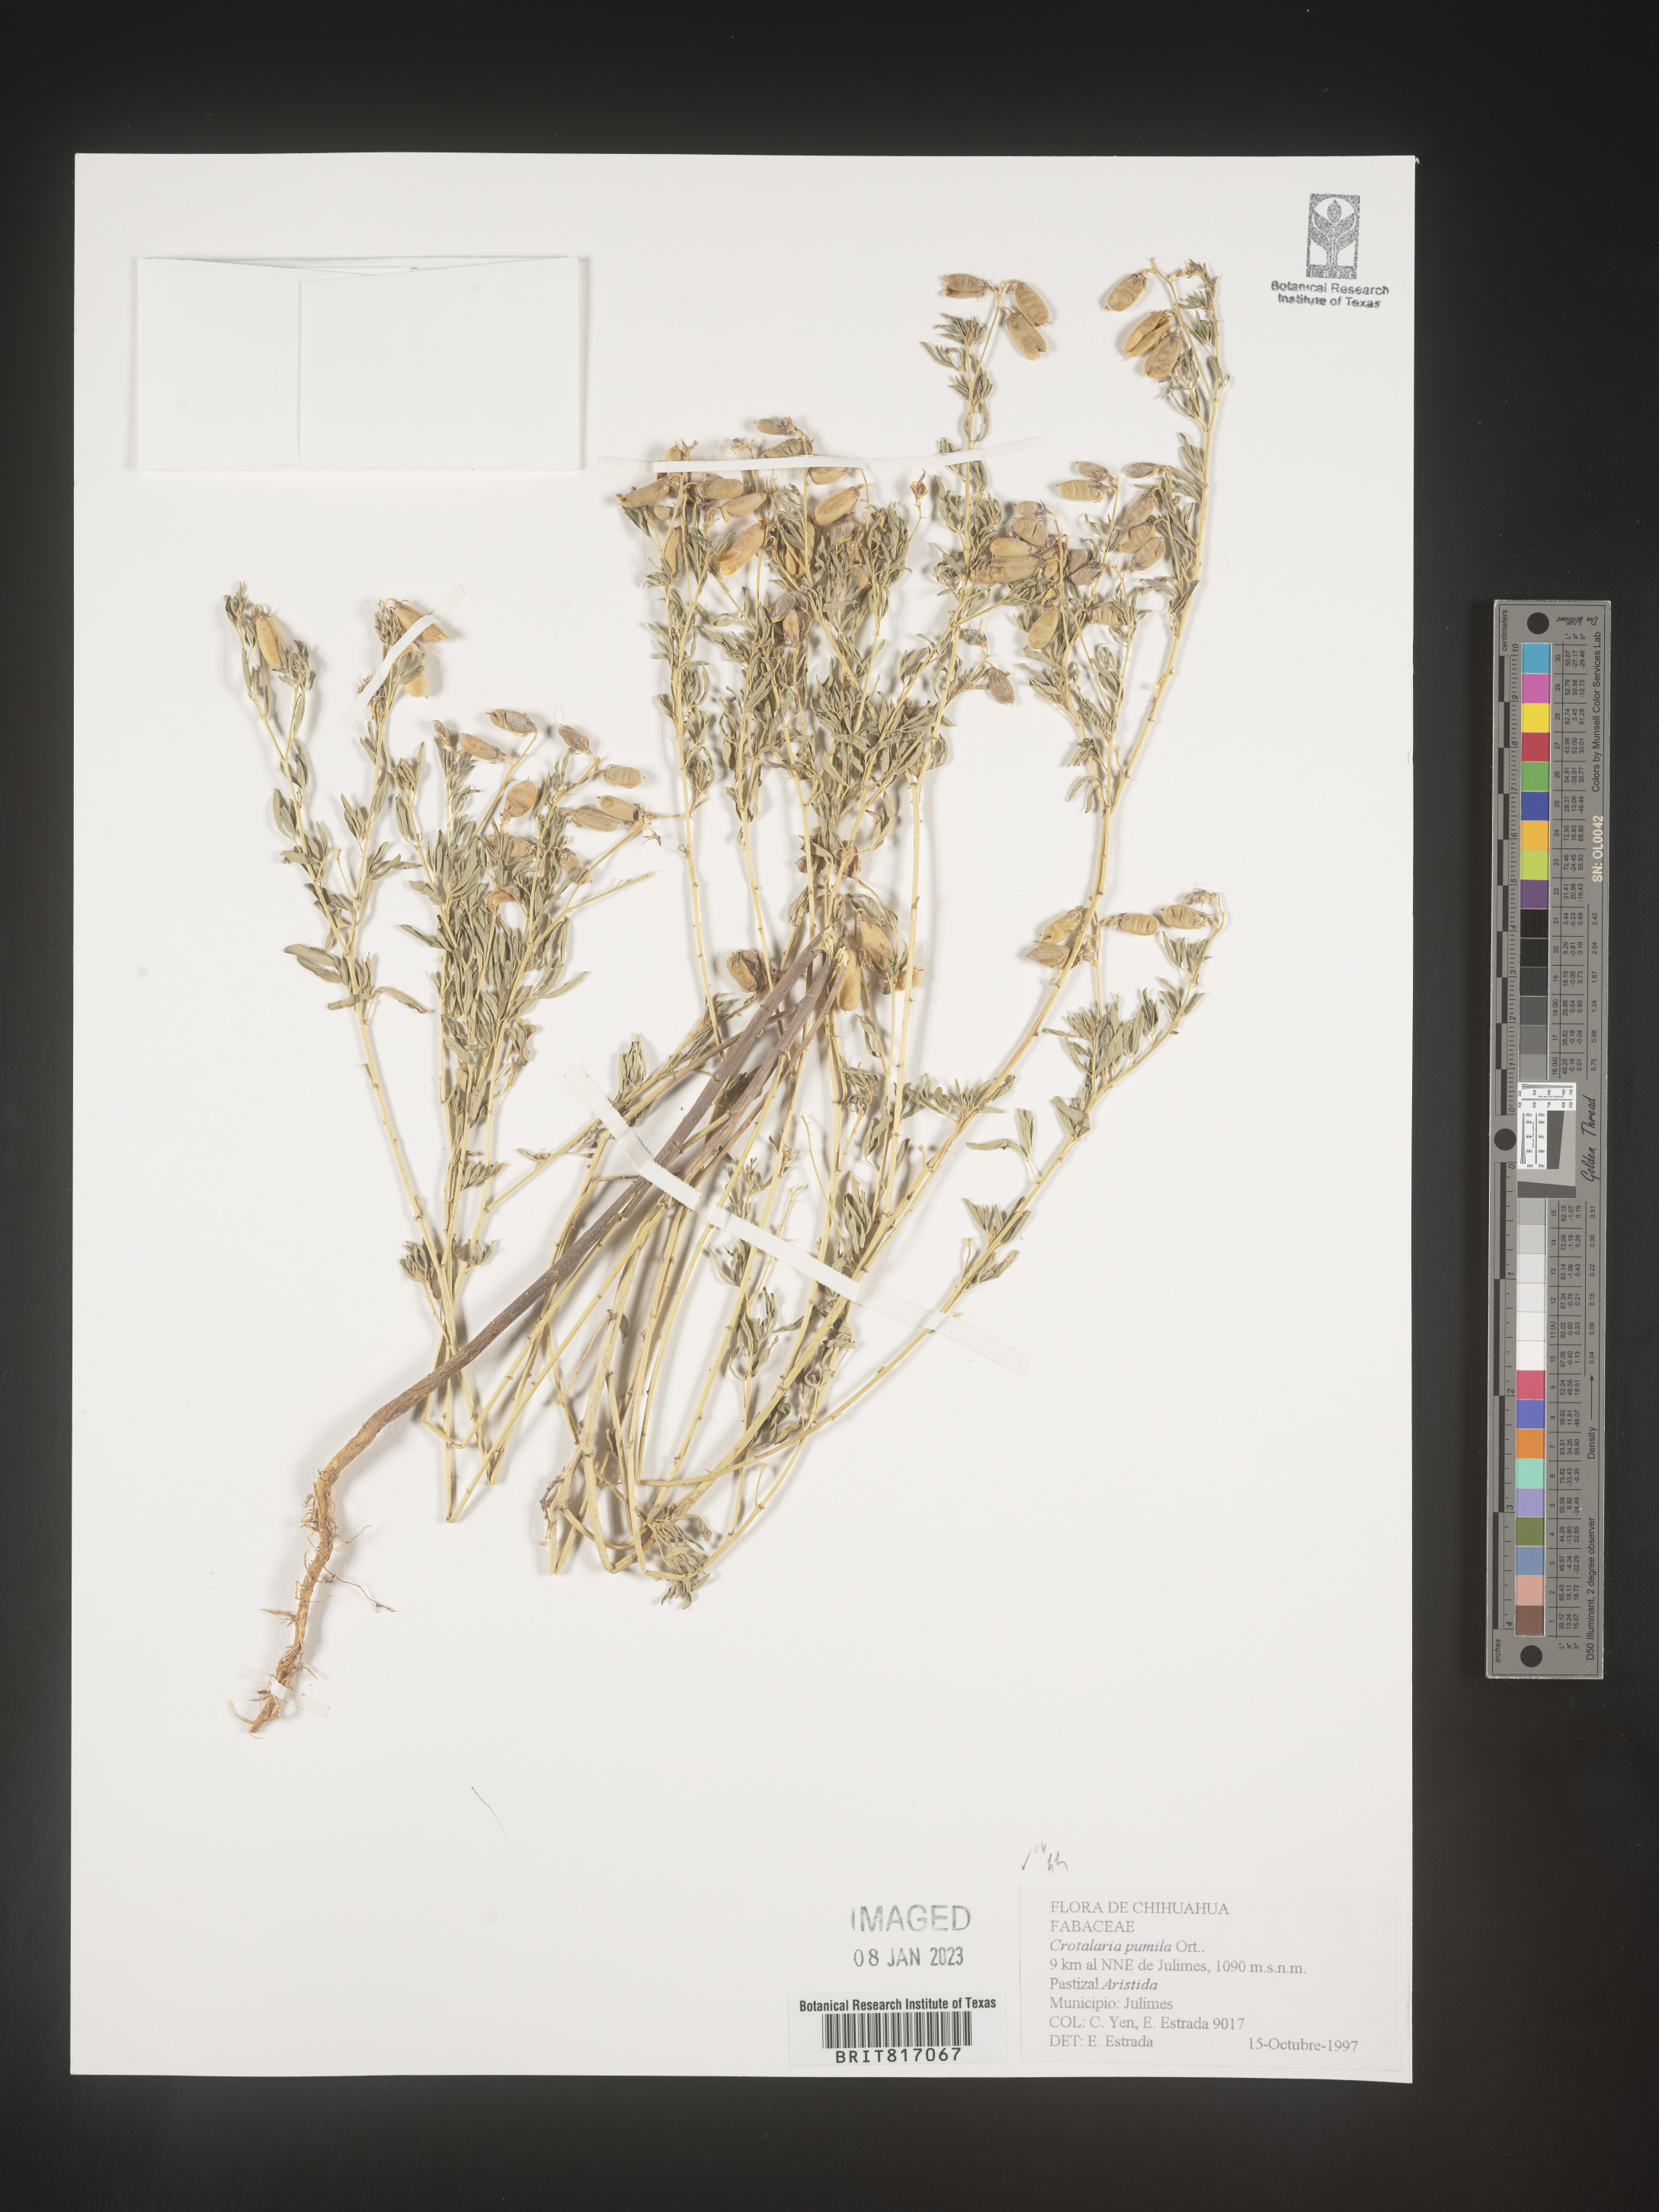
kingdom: Plantae
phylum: Tracheophyta
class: Magnoliopsida
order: Fabales
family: Fabaceae
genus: Crotalaria
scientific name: Crotalaria
